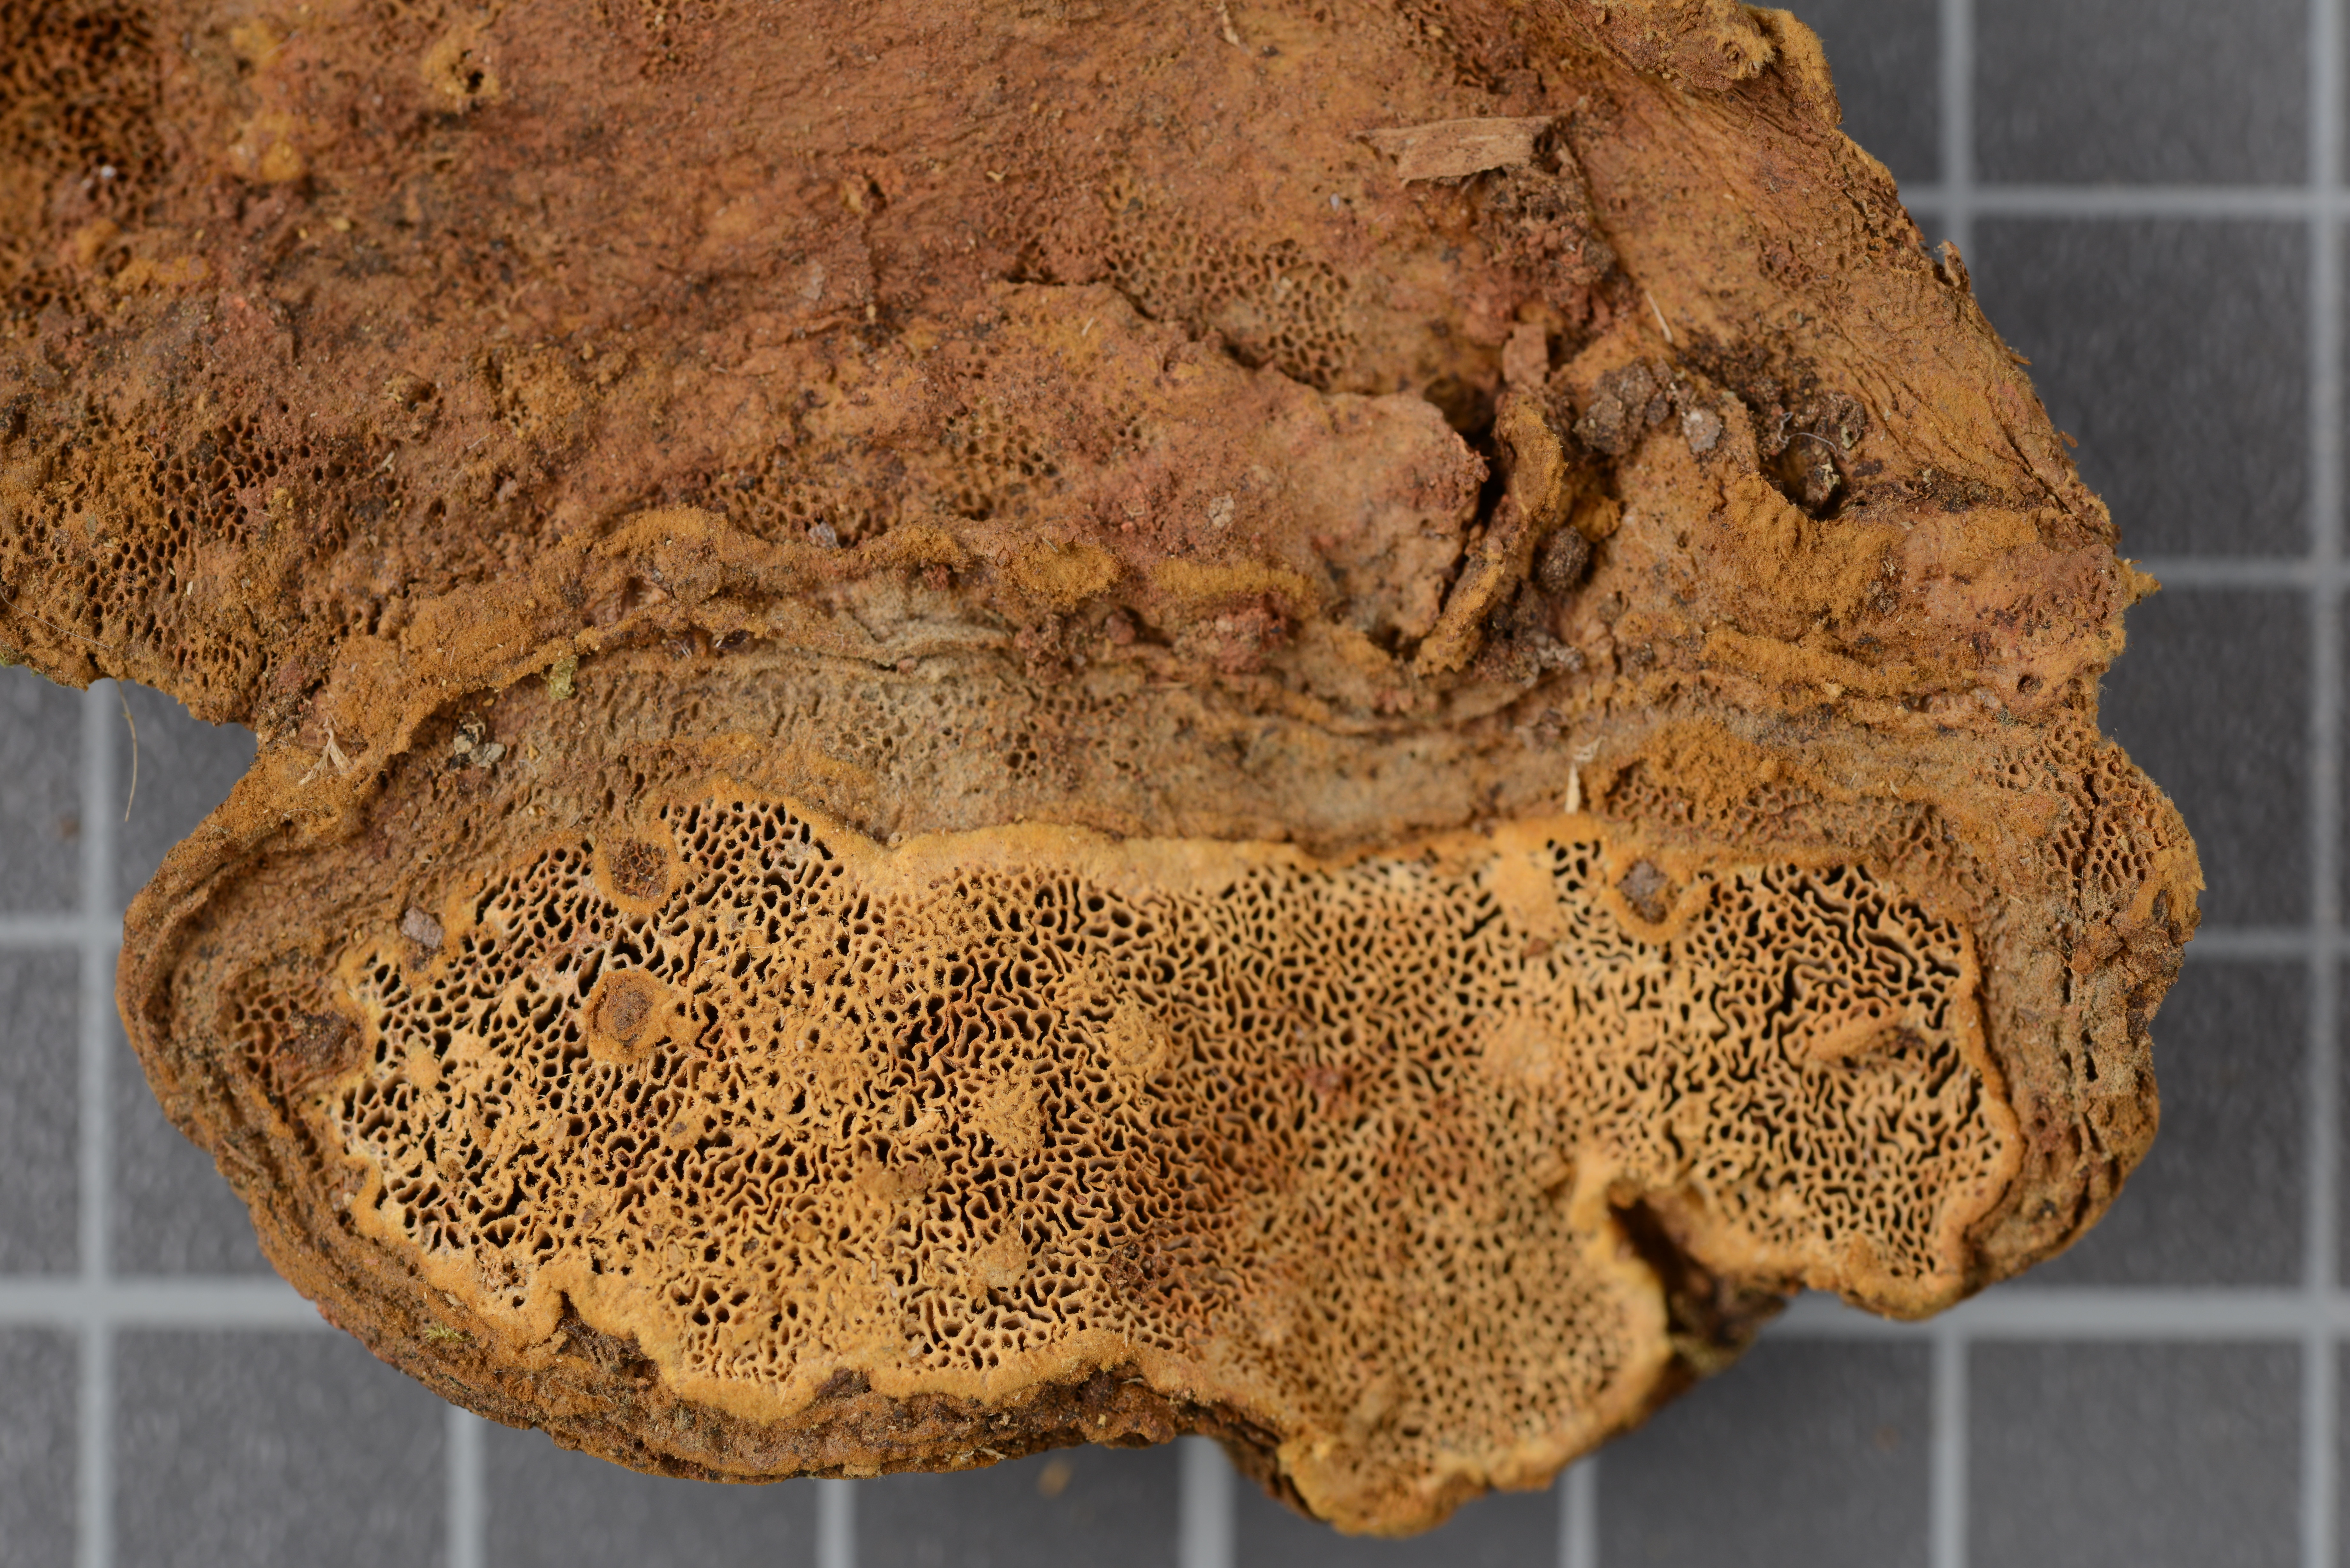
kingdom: Fungi
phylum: Basidiomycota
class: Agaricomycetes
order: Russulales
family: Bondarzewiaceae
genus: Wrightoporia
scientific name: Wrightoporia pouzarii
